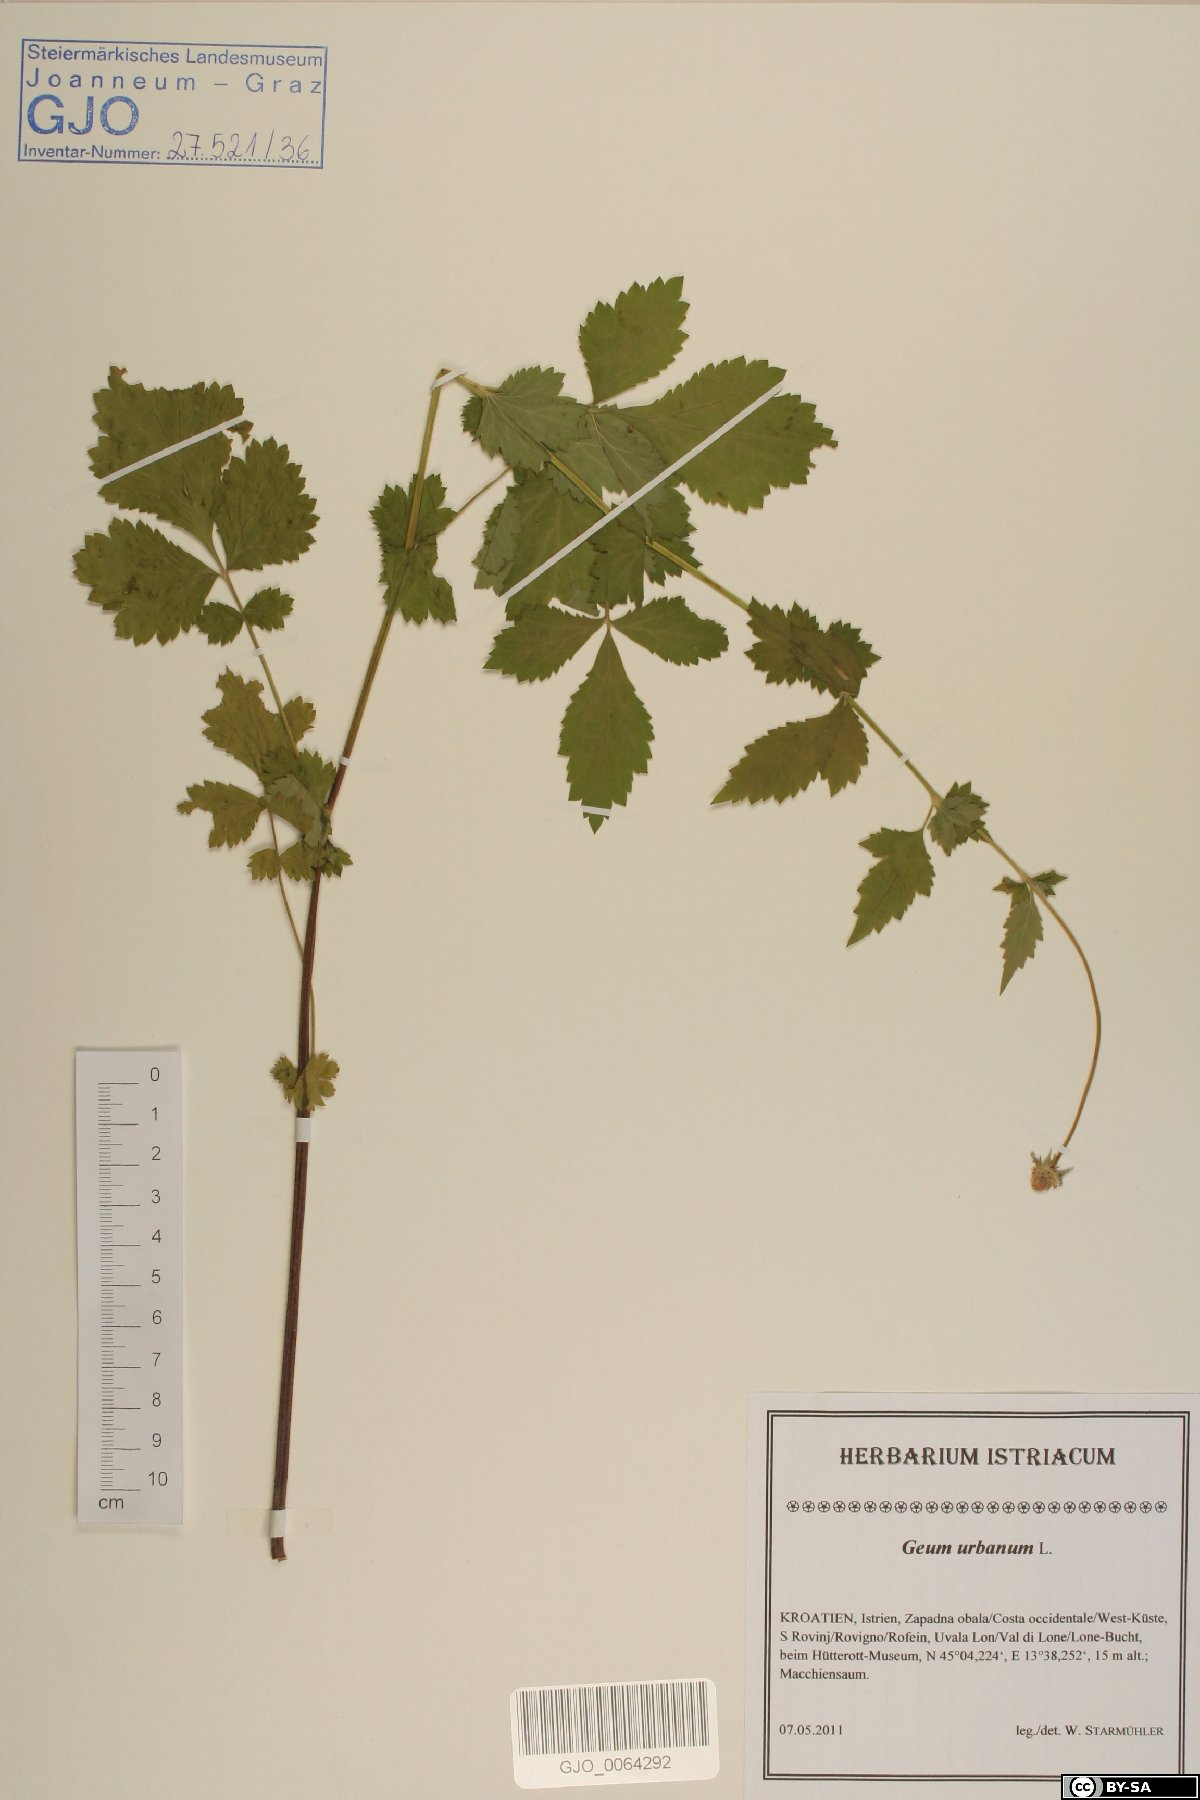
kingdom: Plantae
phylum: Tracheophyta
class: Magnoliopsida
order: Rosales
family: Rosaceae
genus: Geum
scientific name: Geum urbanum
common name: Wood avens
